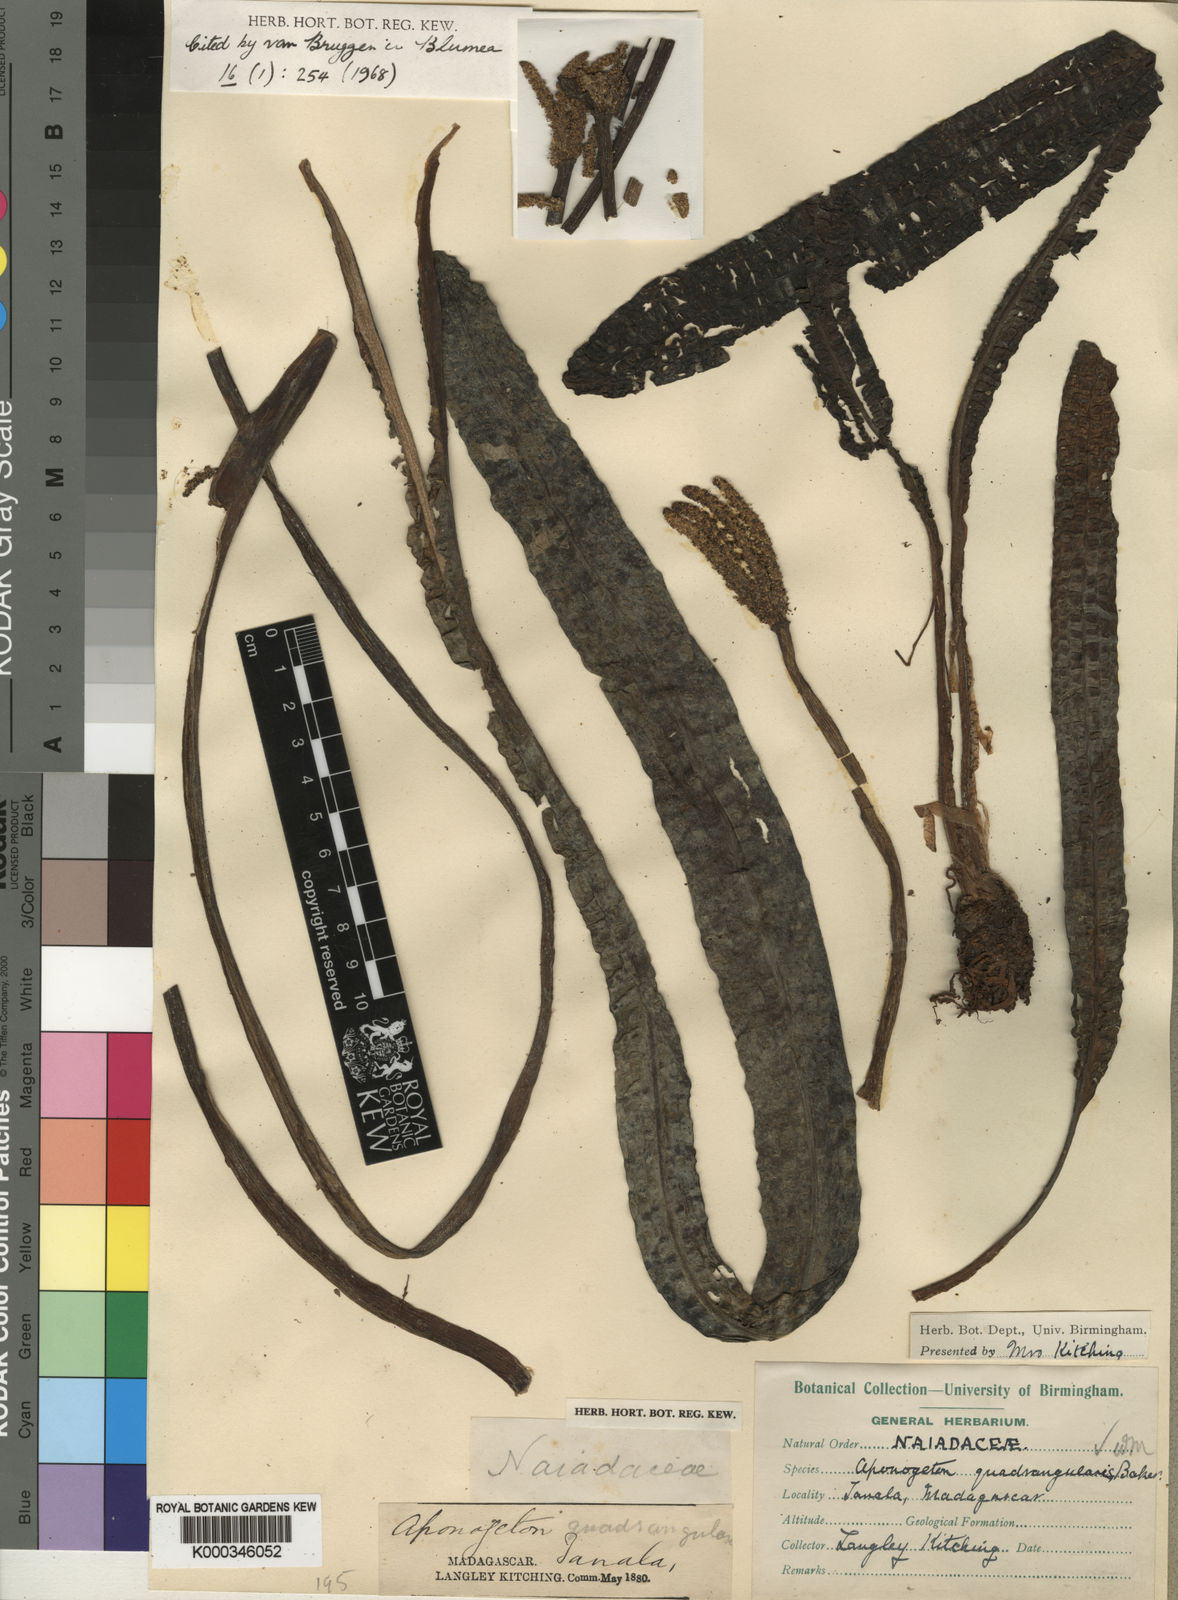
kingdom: Plantae
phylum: Tracheophyta
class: Liliopsida
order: Alismatales
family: Aponogetonaceae
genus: Aponogeton
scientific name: Aponogeton bernierianus
